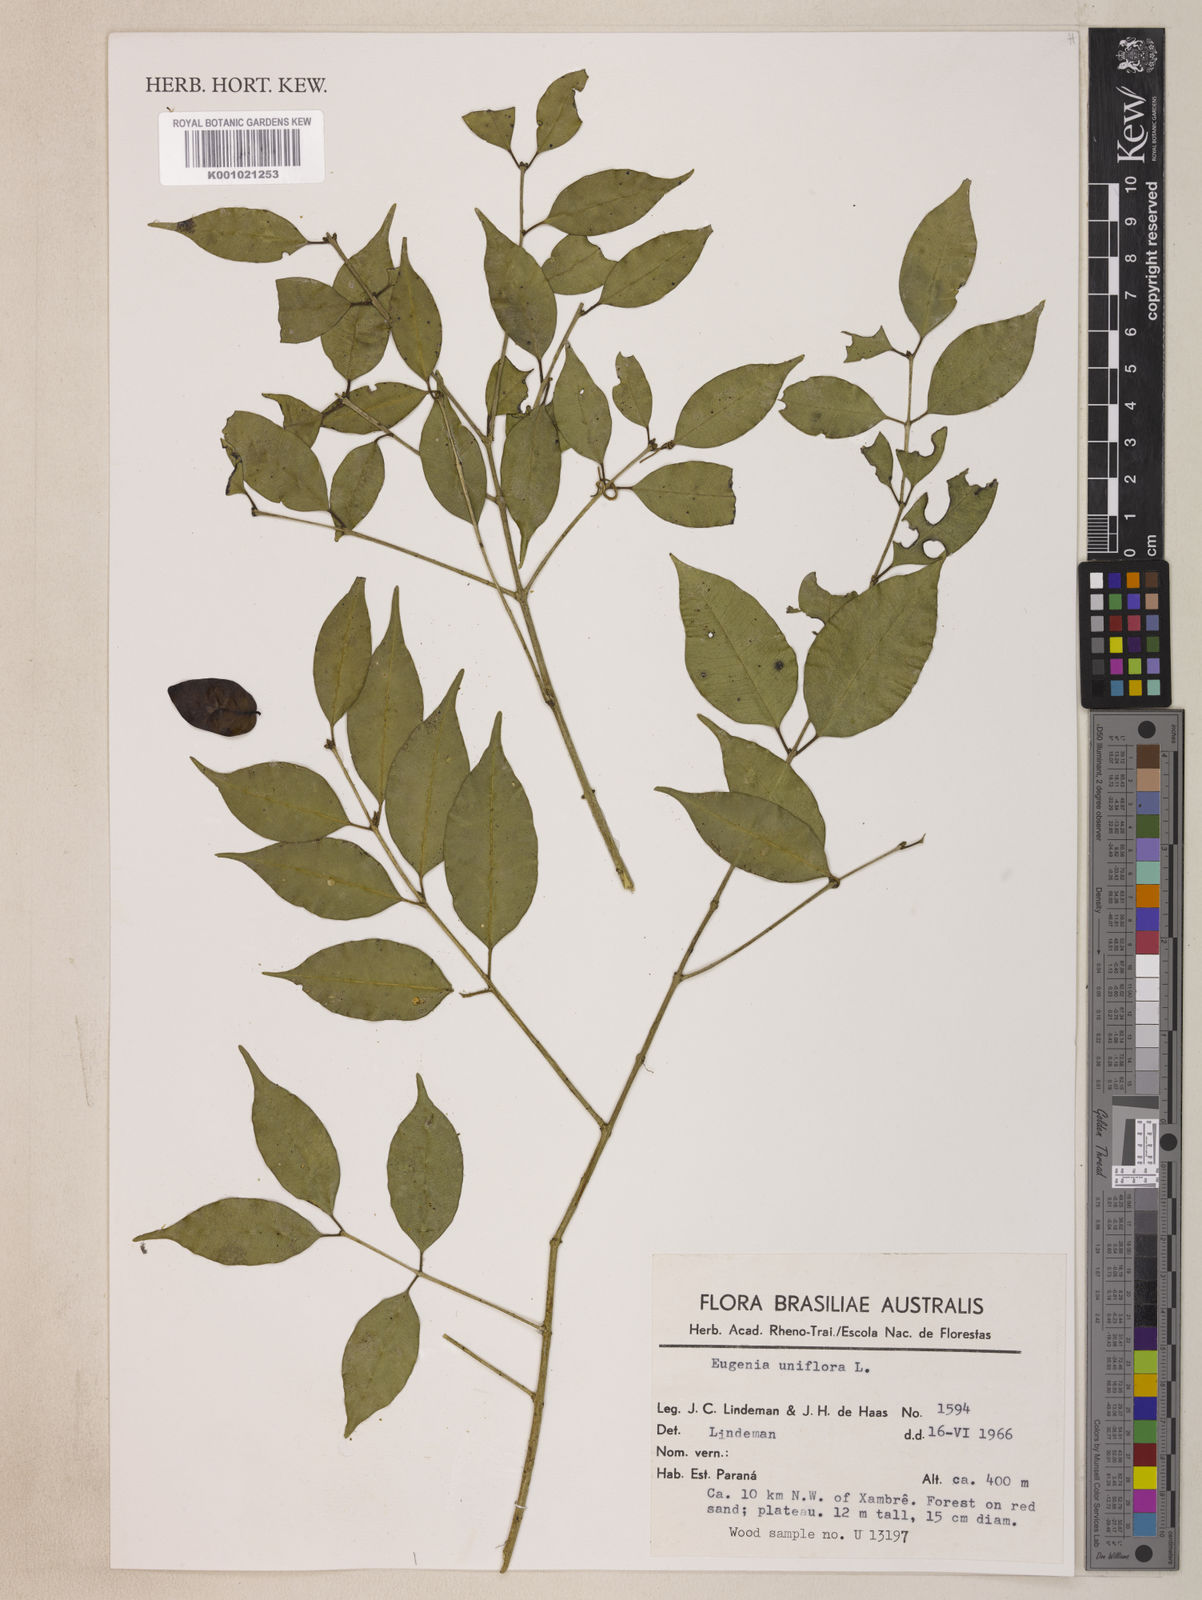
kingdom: Plantae
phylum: Tracheophyta
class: Magnoliopsida
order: Myrtales
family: Myrtaceae
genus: Eugenia
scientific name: Eugenia uniflora
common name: Surinam cherry
